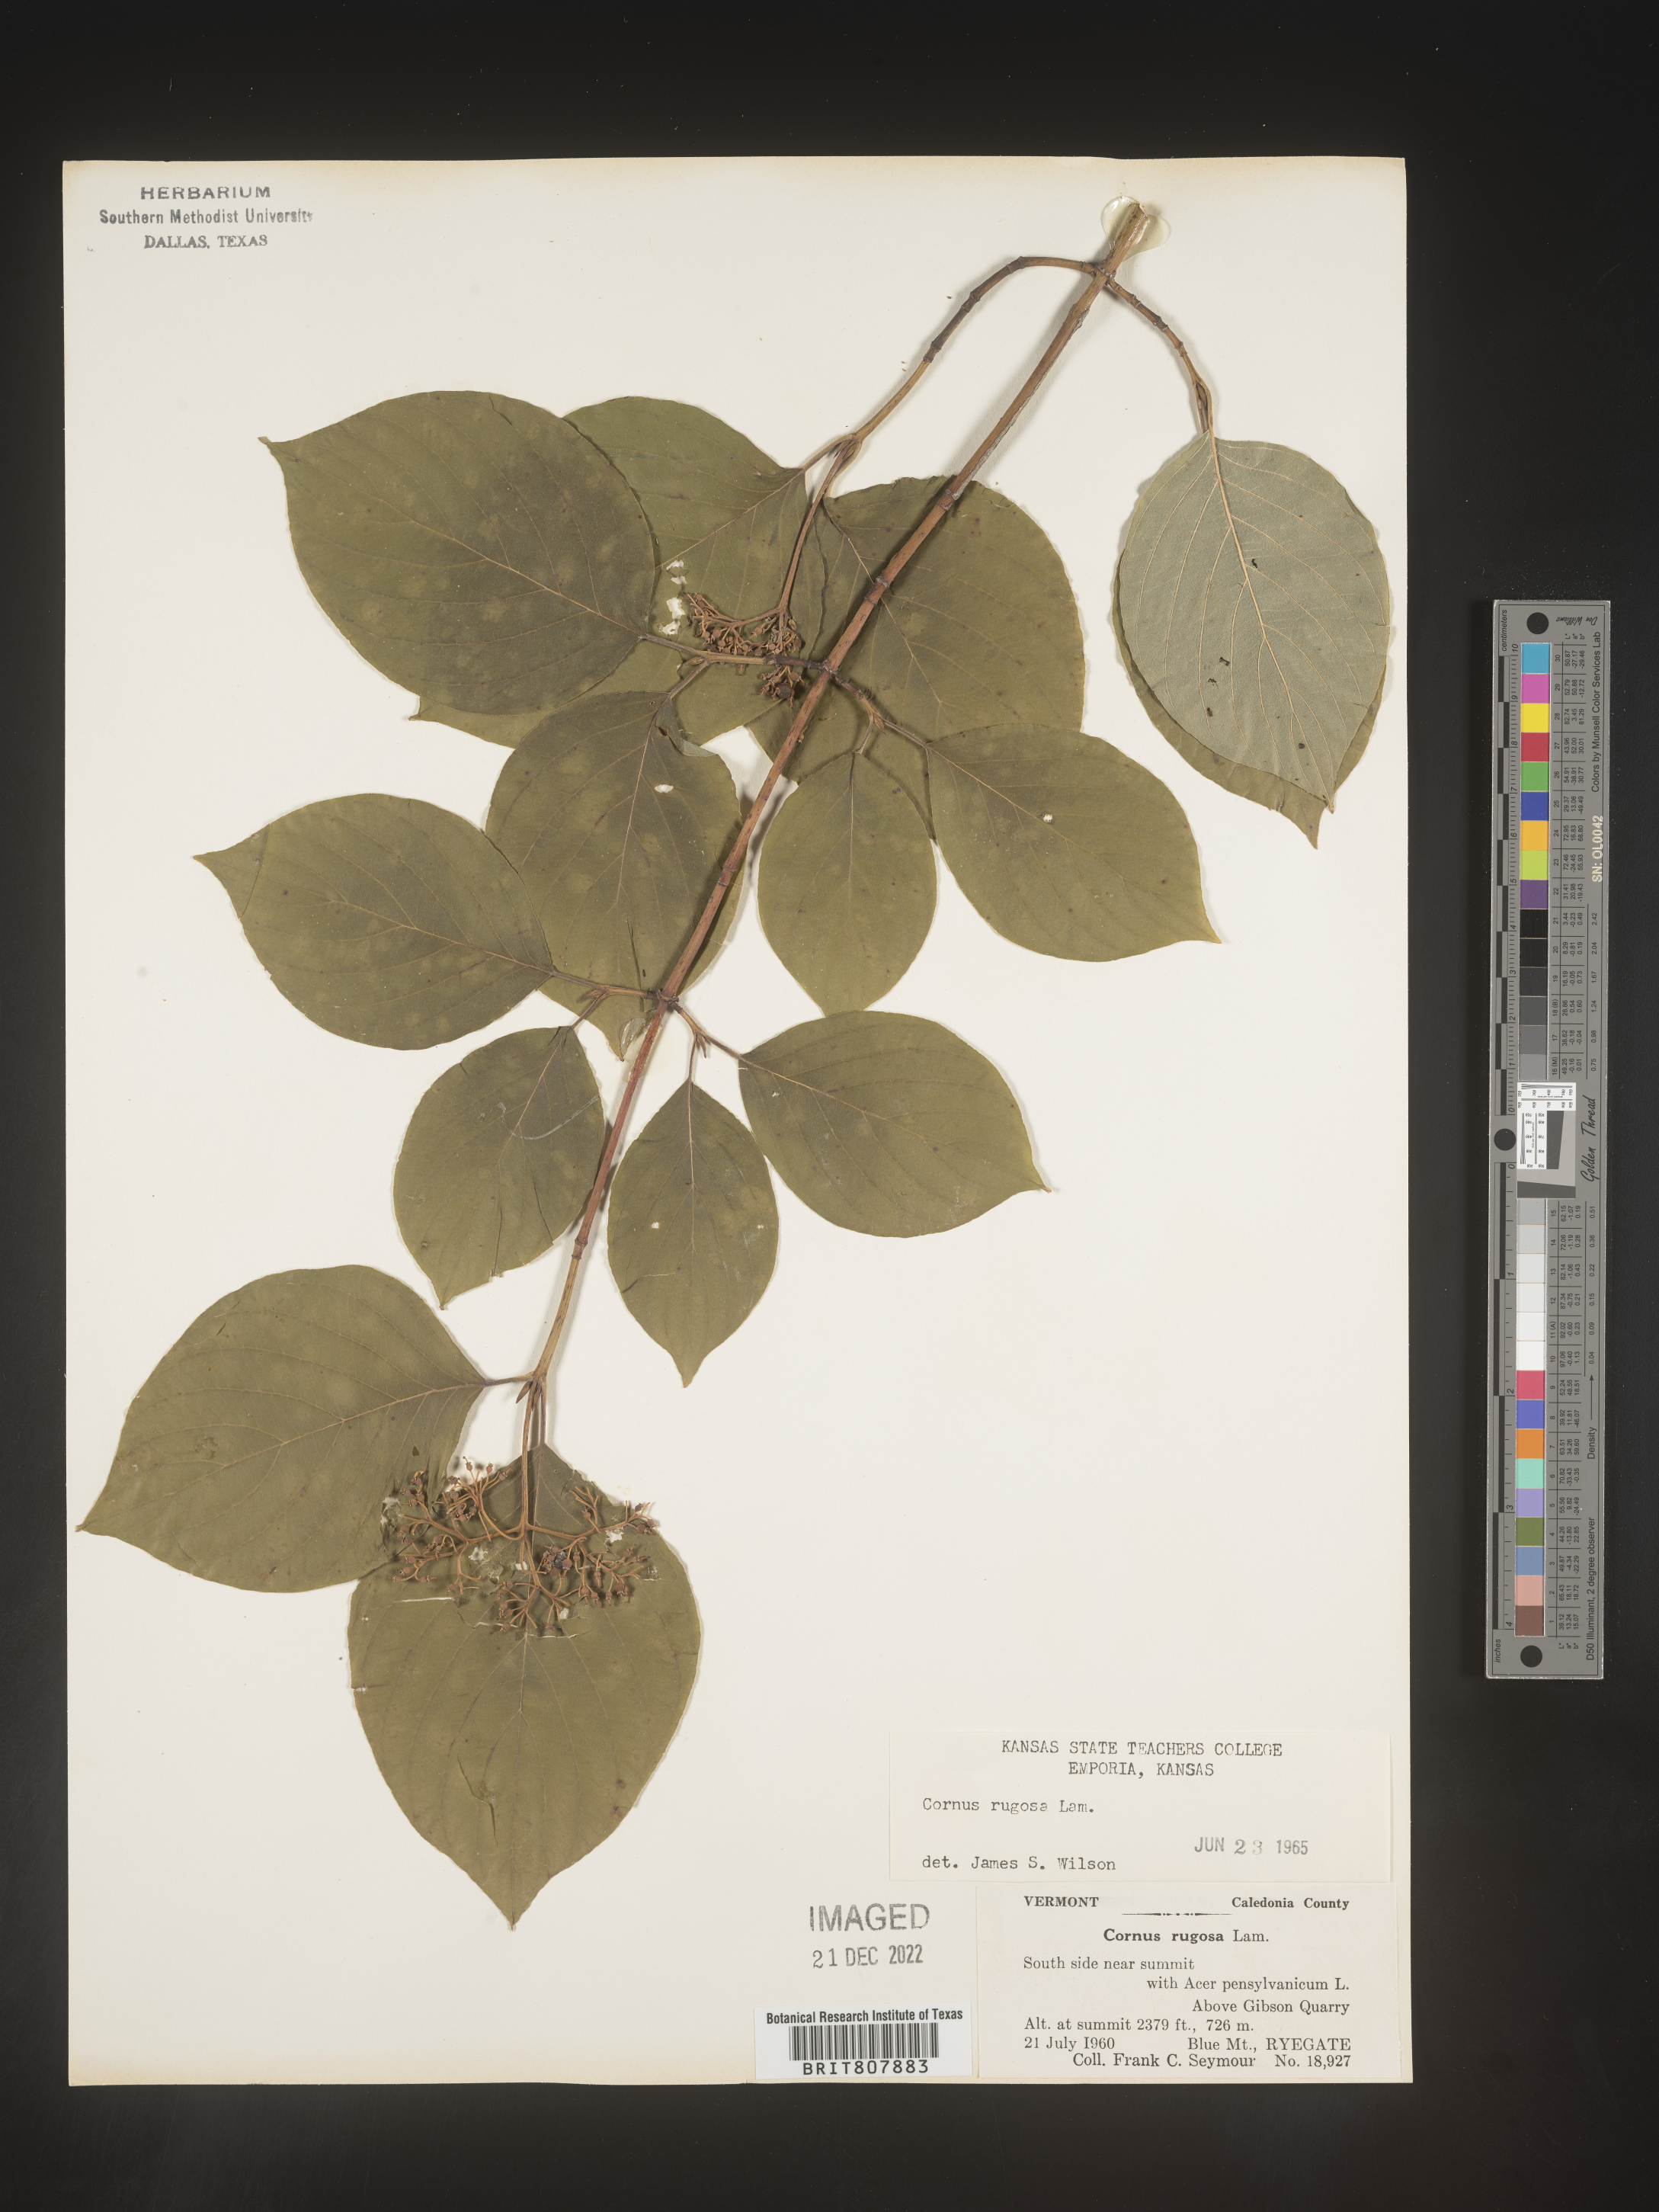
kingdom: Plantae
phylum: Tracheophyta
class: Magnoliopsida
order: Cornales
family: Cornaceae
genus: Cornus
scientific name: Cornus rugosa
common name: Round-leaf dogwood
